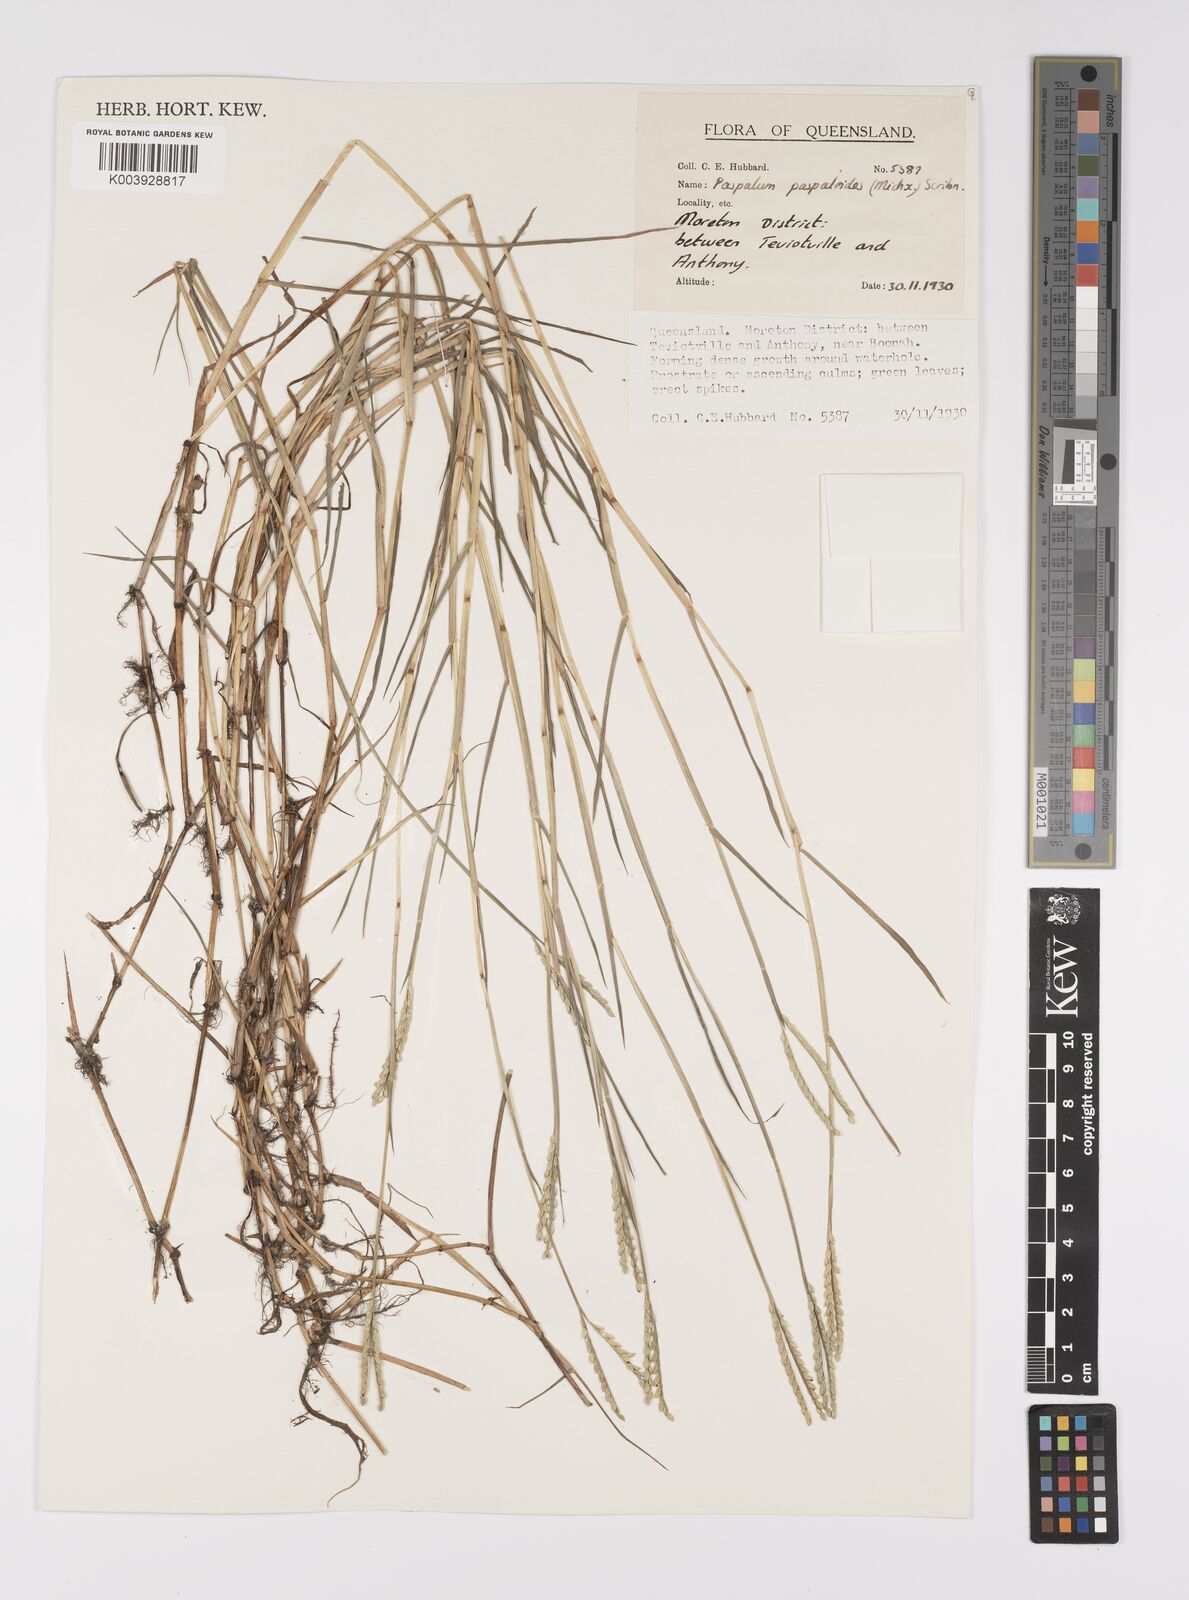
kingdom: Plantae
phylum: Tracheophyta
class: Liliopsida
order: Poales
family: Poaceae
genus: Paspalum
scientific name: Paspalum distichum
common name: Knotgrass
